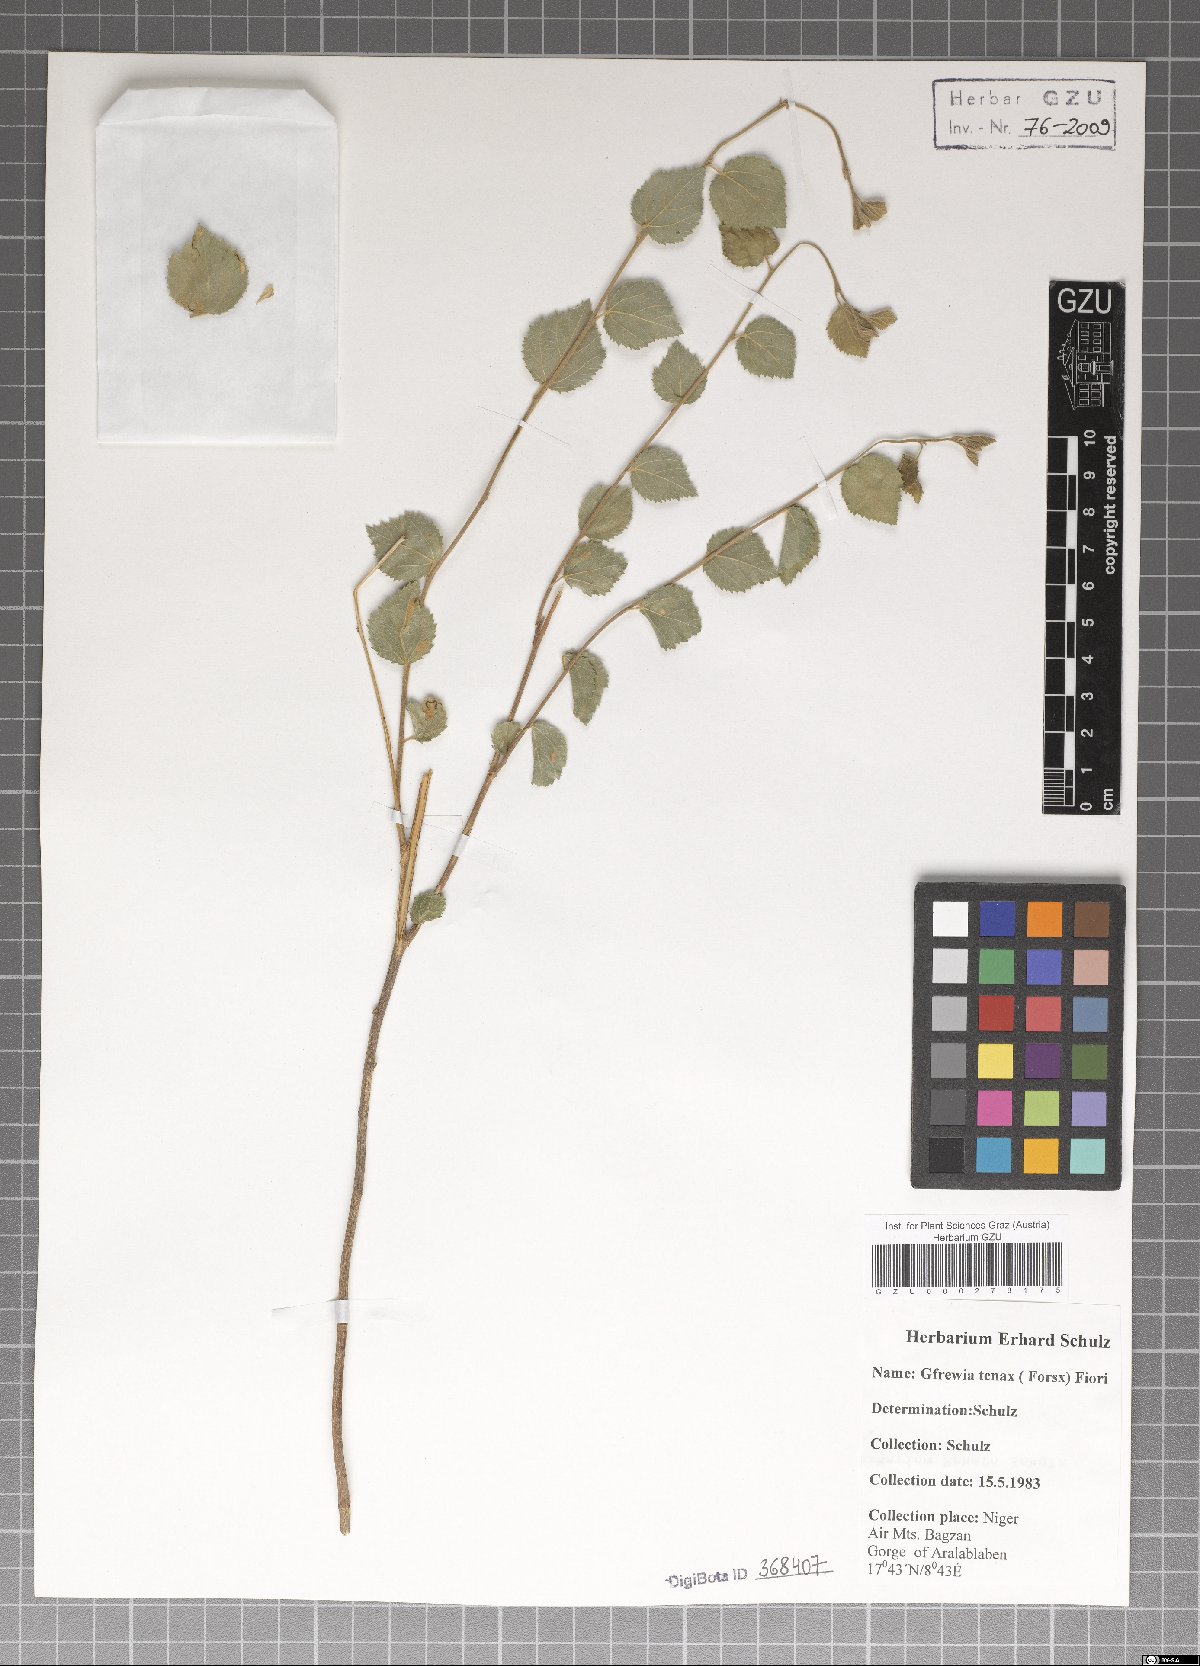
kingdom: Plantae
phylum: Tracheophyta
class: Magnoliopsida
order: Malvales
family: Malvaceae
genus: Grewia
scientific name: Grewia tenax
